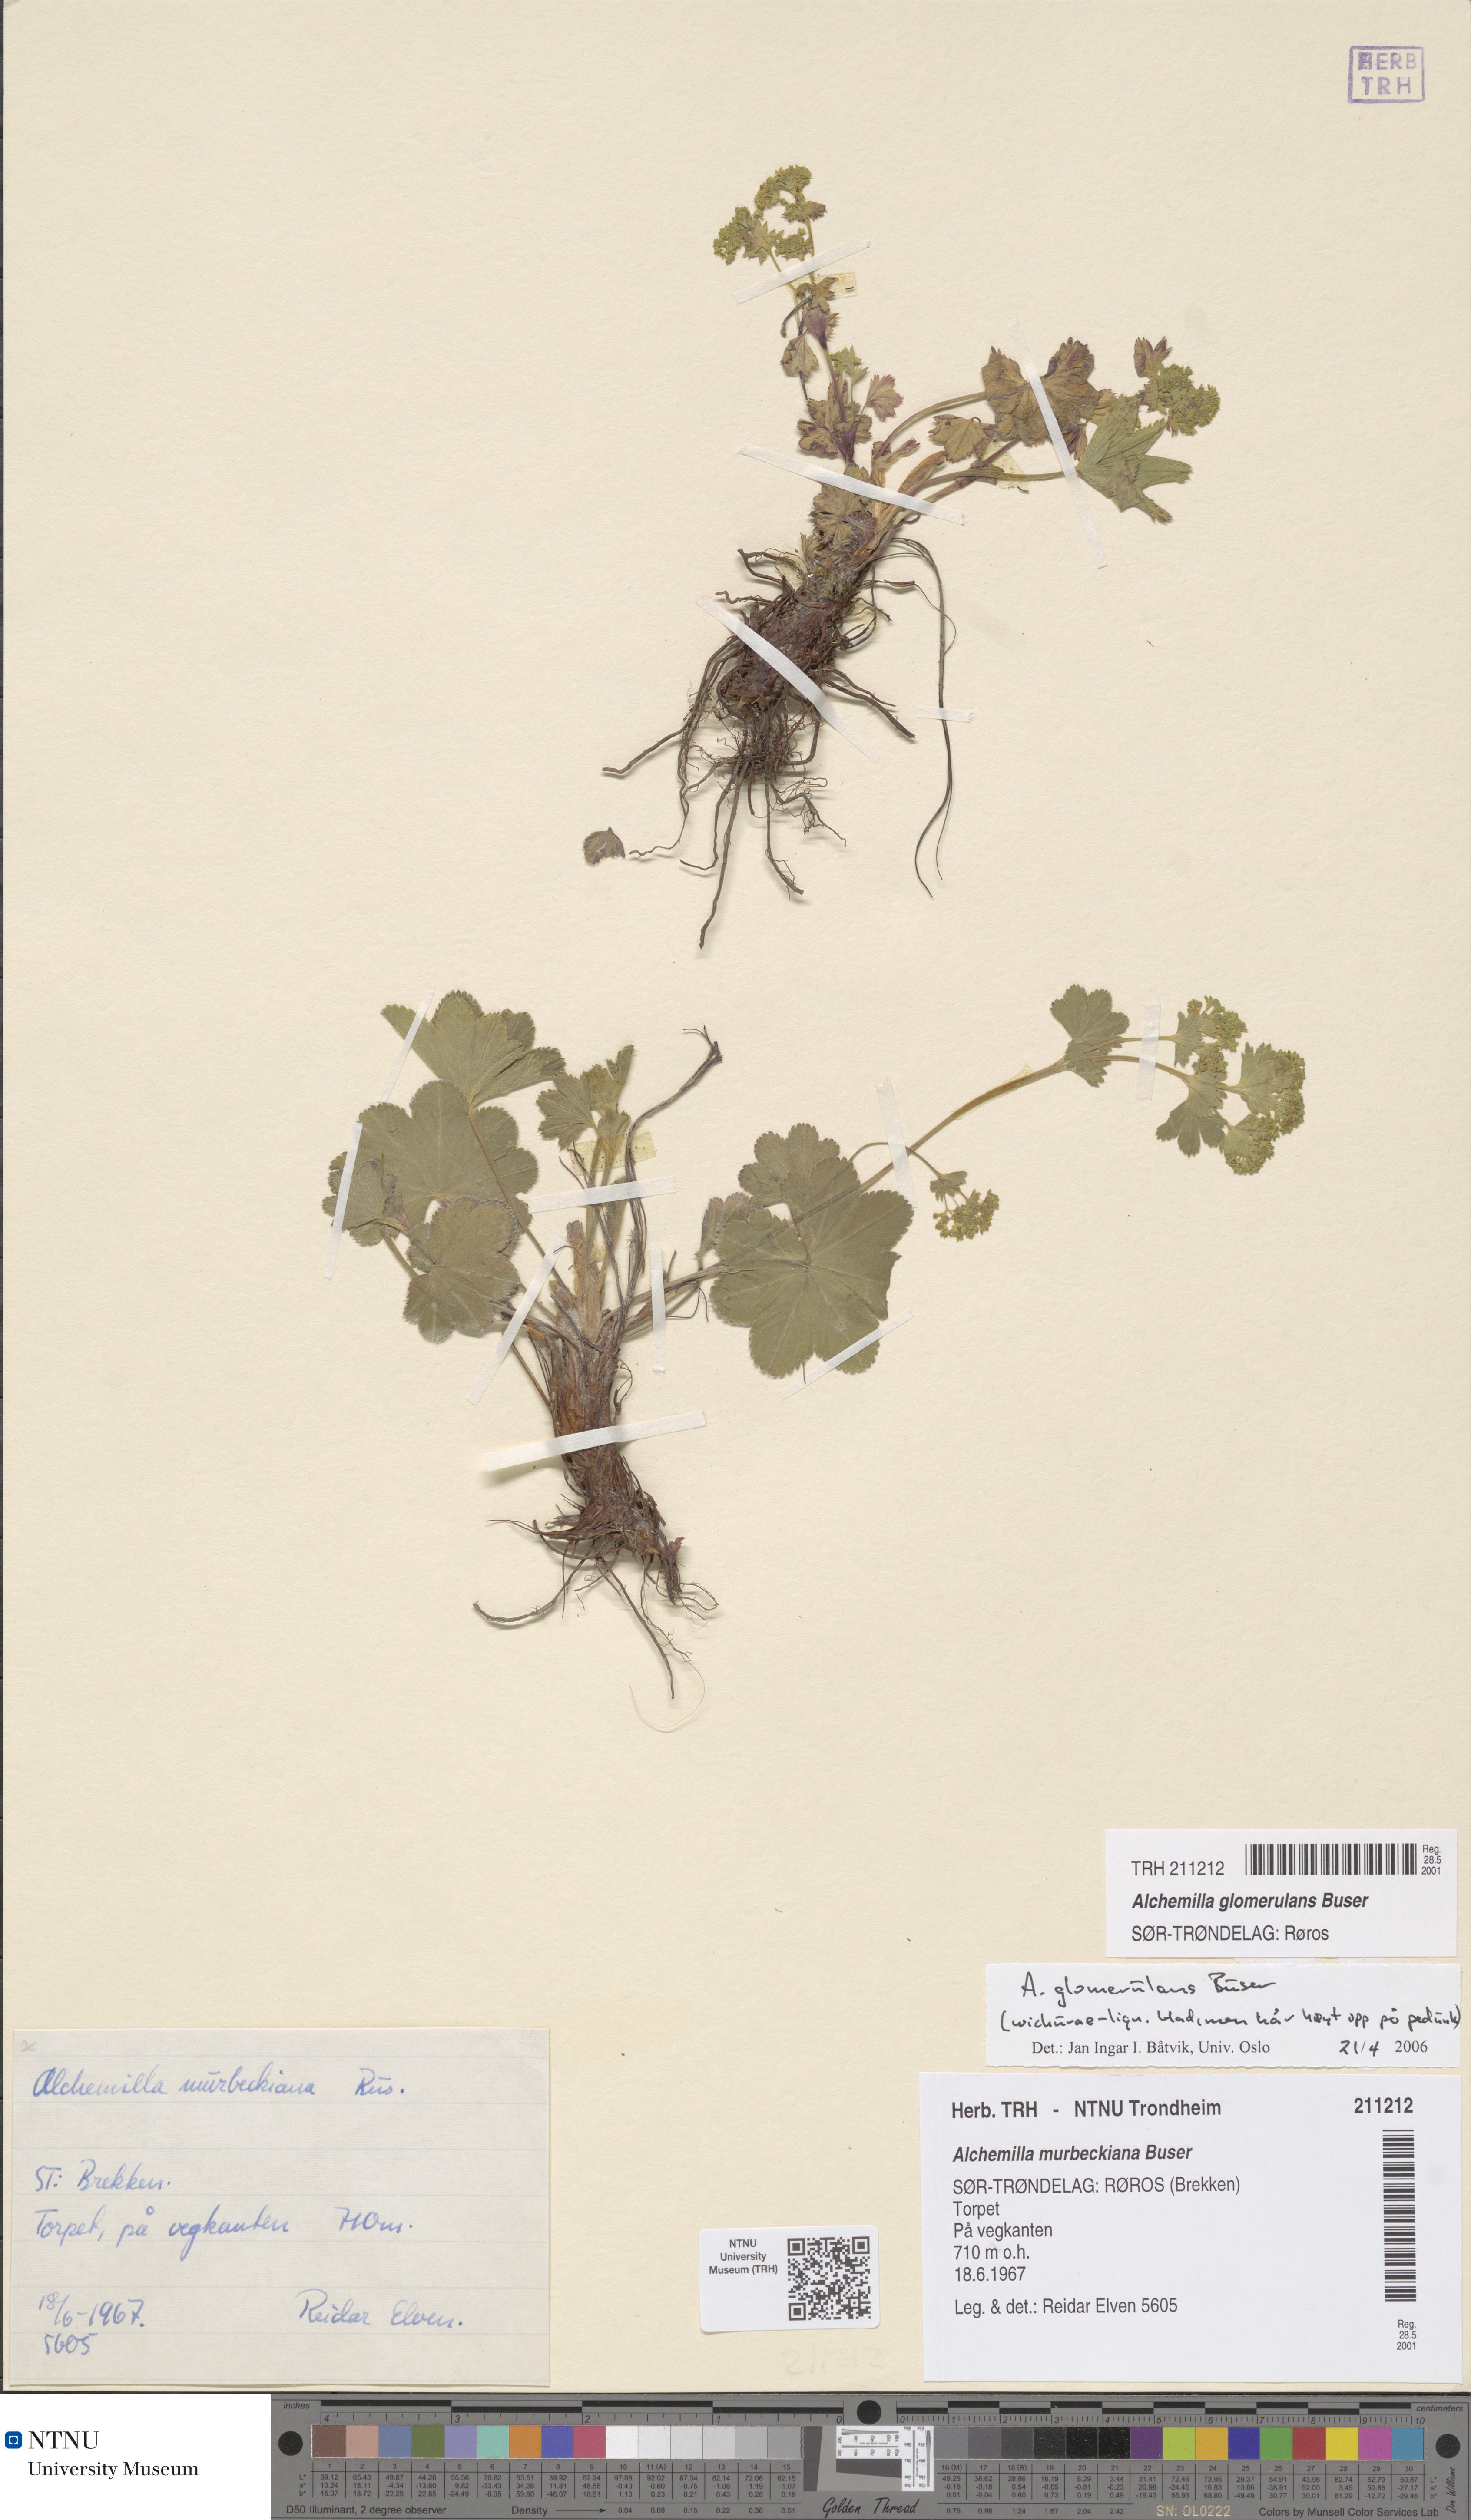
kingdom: Plantae
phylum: Tracheophyta
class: Magnoliopsida
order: Rosales
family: Rosaceae
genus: Alchemilla
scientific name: Alchemilla glomerulans
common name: Clustered lady's mantle
